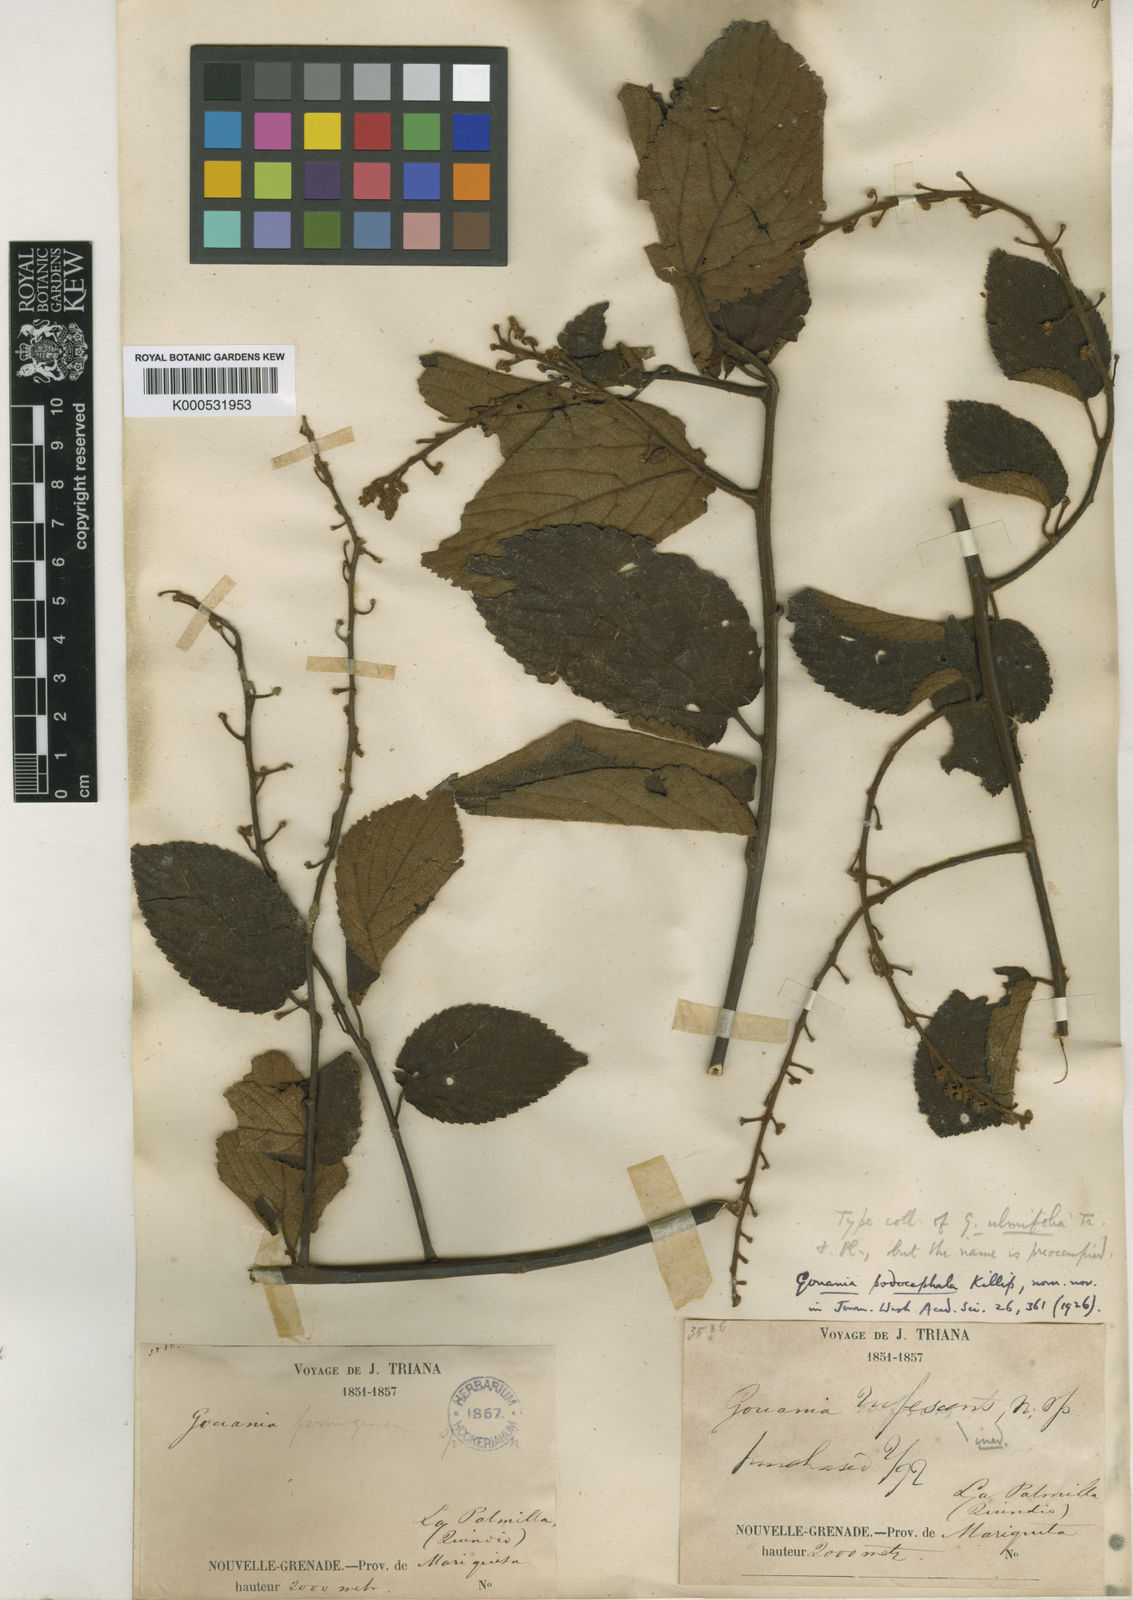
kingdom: Plantae
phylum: Tracheophyta
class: Magnoliopsida
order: Rosales
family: Rhamnaceae
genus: Gouania
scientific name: Gouania
